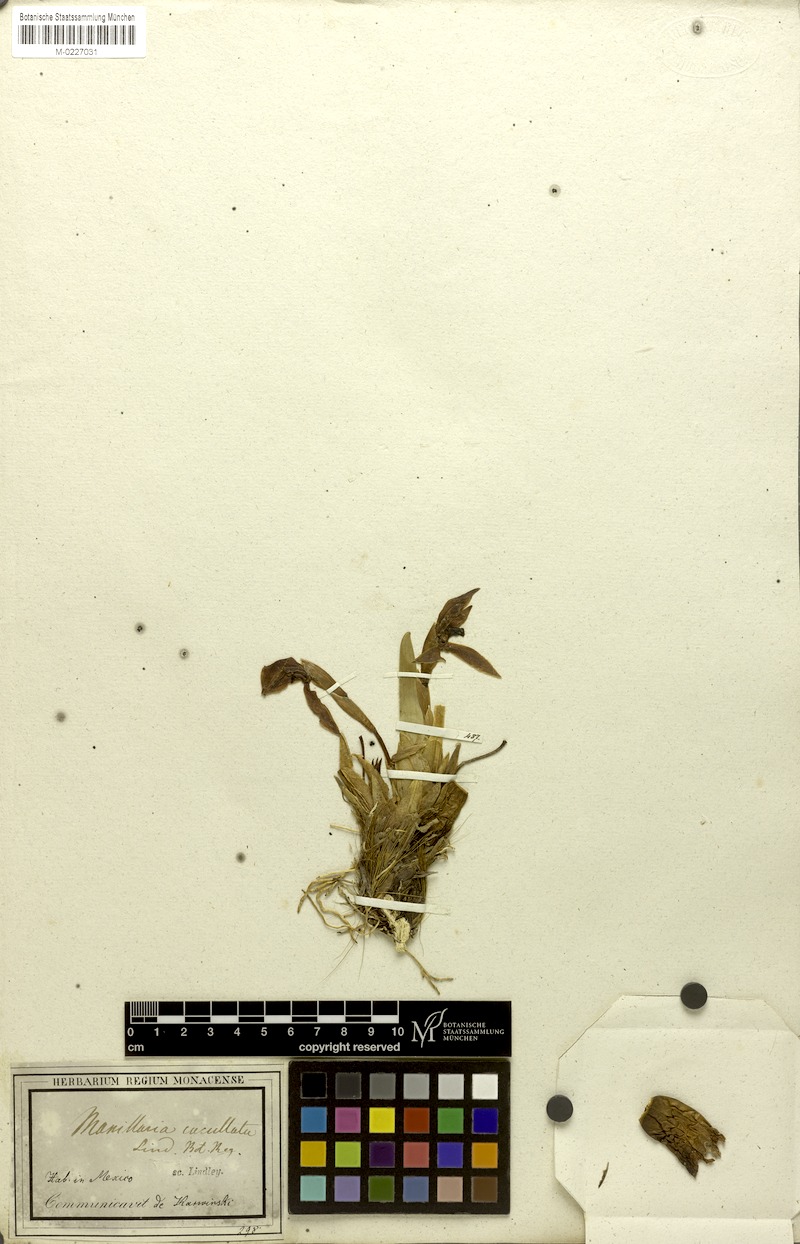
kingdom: Plantae
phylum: Tracheophyta
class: Liliopsida
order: Asparagales
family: Orchidaceae
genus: Maxillaria
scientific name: Maxillaria rhombea
